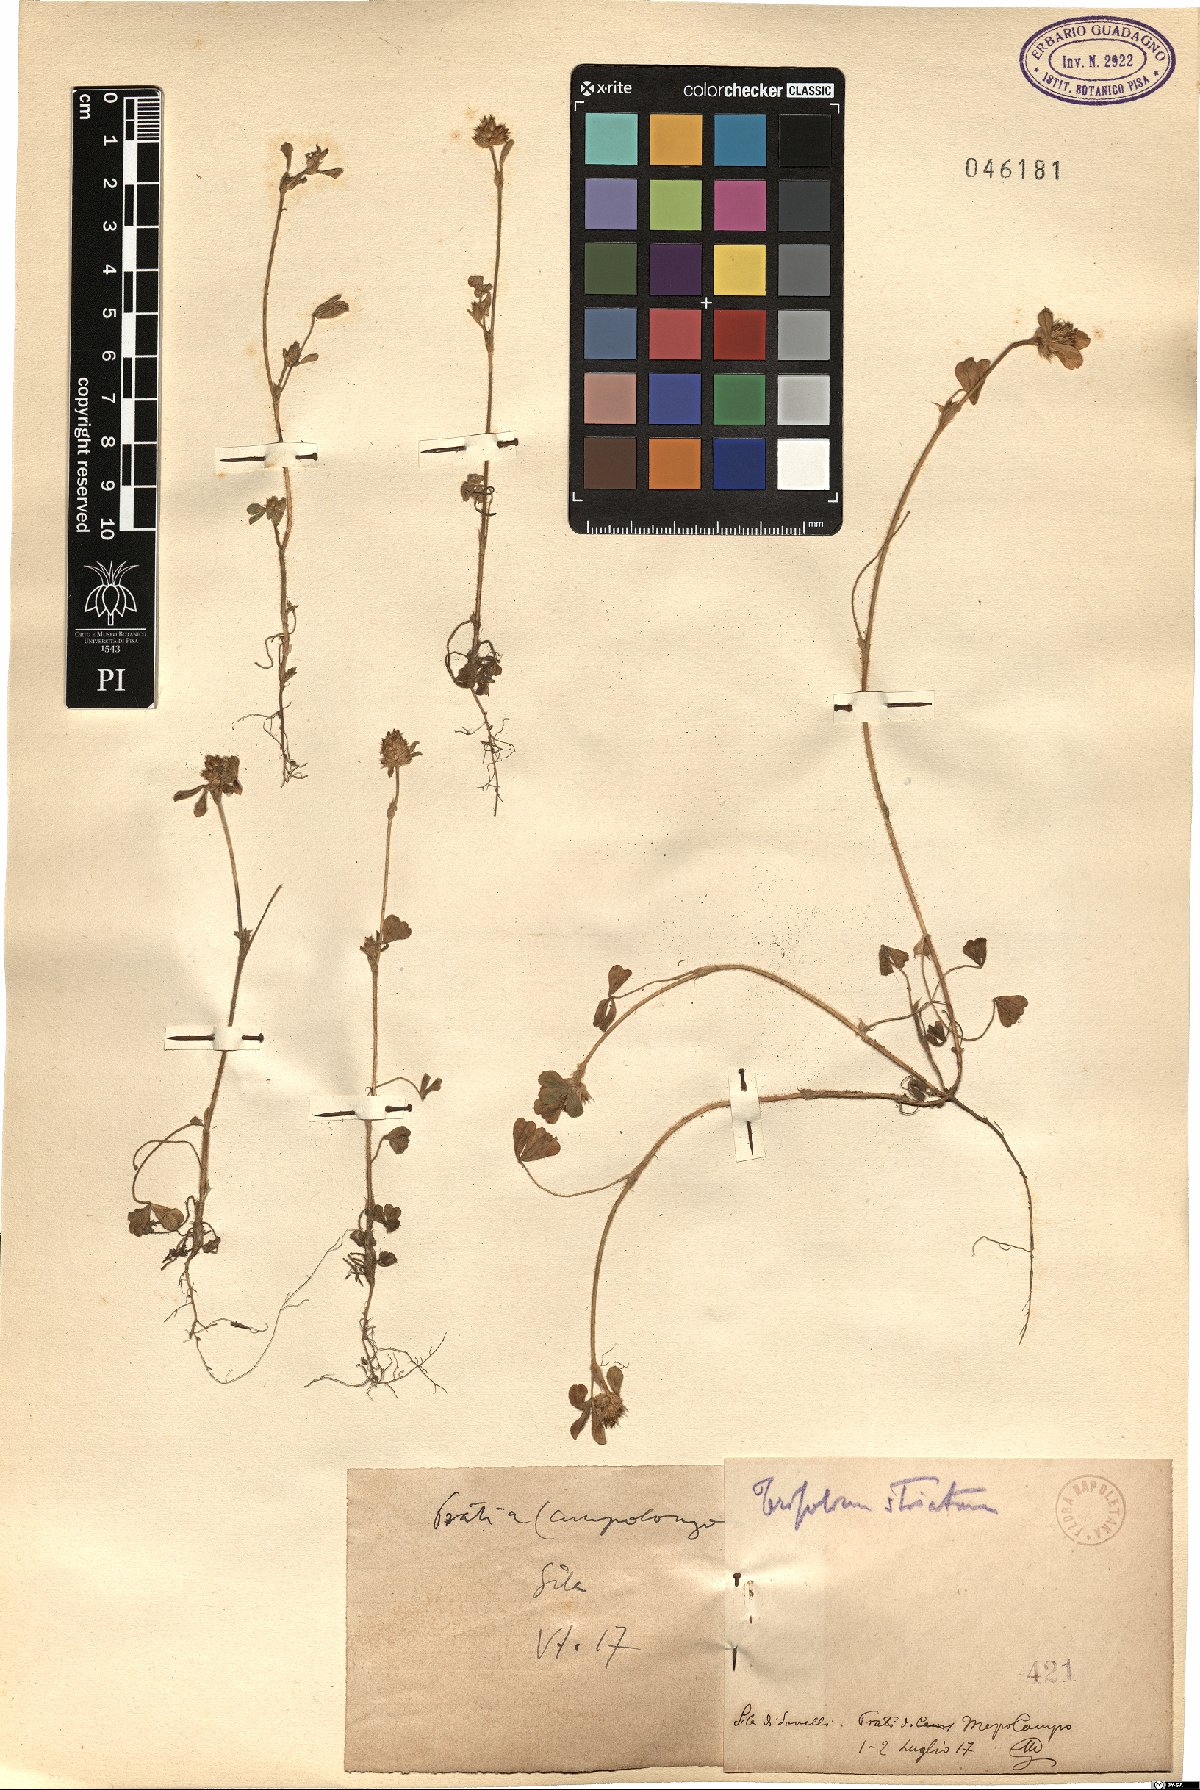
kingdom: Plantae
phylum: Tracheophyta
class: Magnoliopsida
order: Fabales
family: Fabaceae
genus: Trifolium
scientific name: Trifolium striatum
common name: Knotted clover
